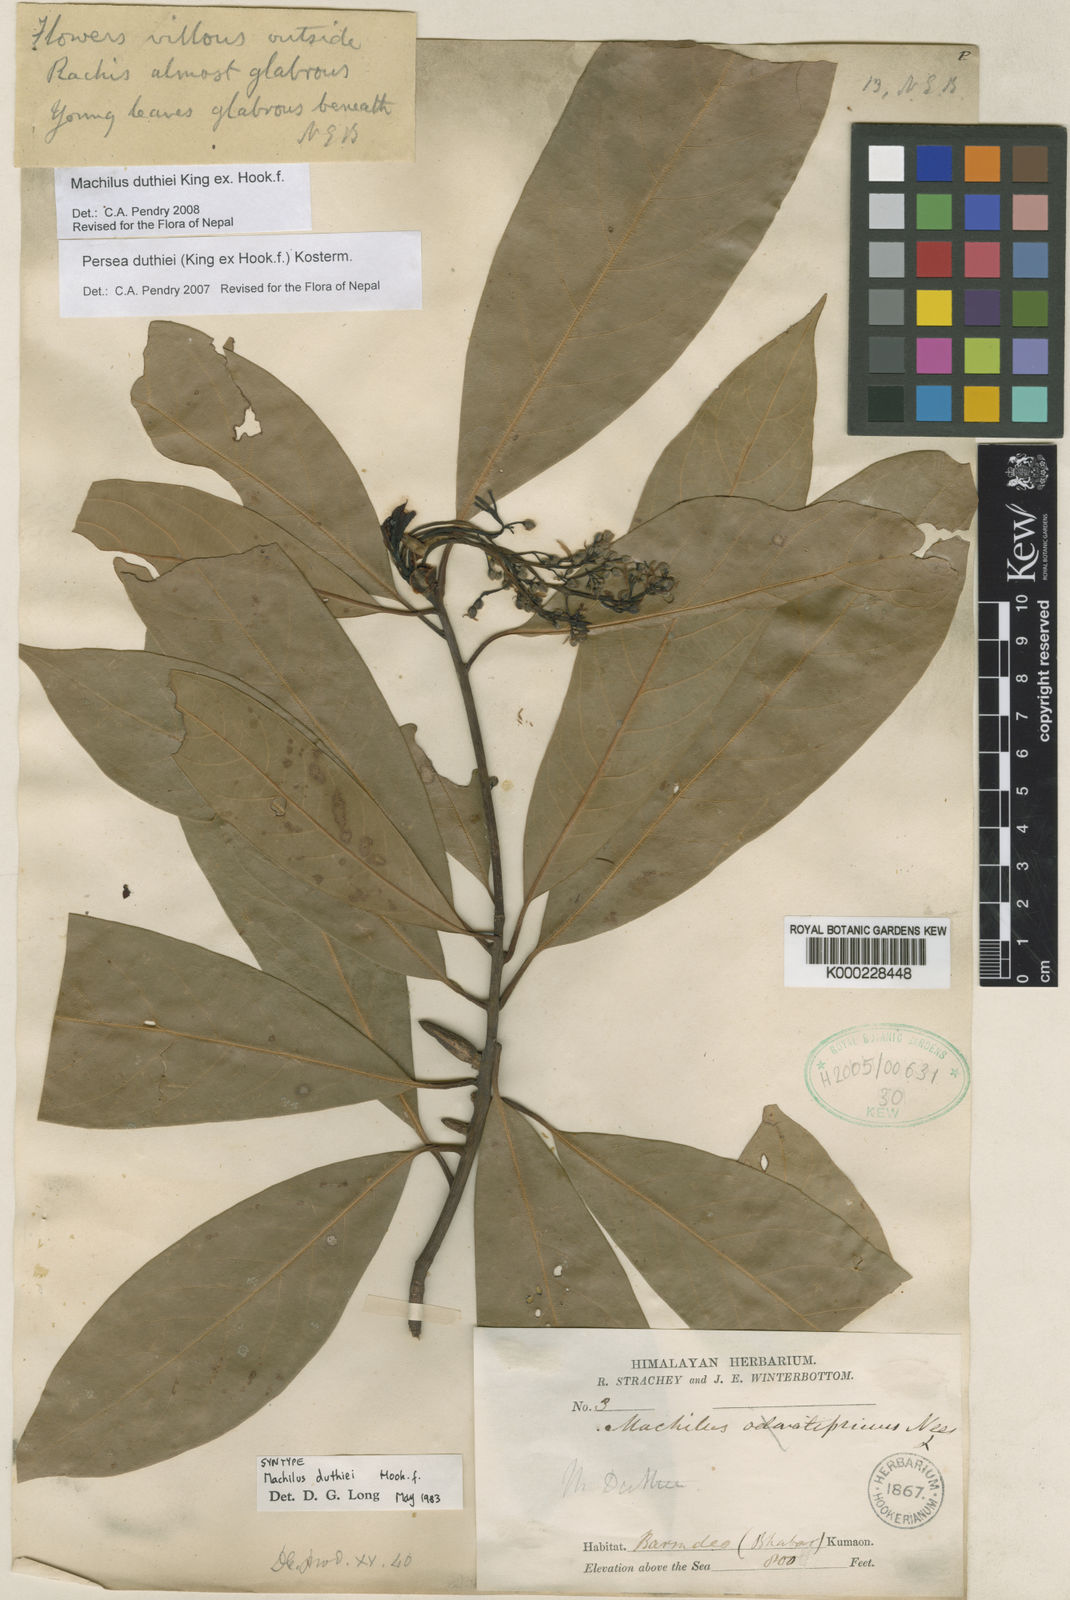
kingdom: Plantae
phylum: Tracheophyta
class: Magnoliopsida
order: Laurales
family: Lauraceae
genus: Machilus
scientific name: Machilus duthiei
